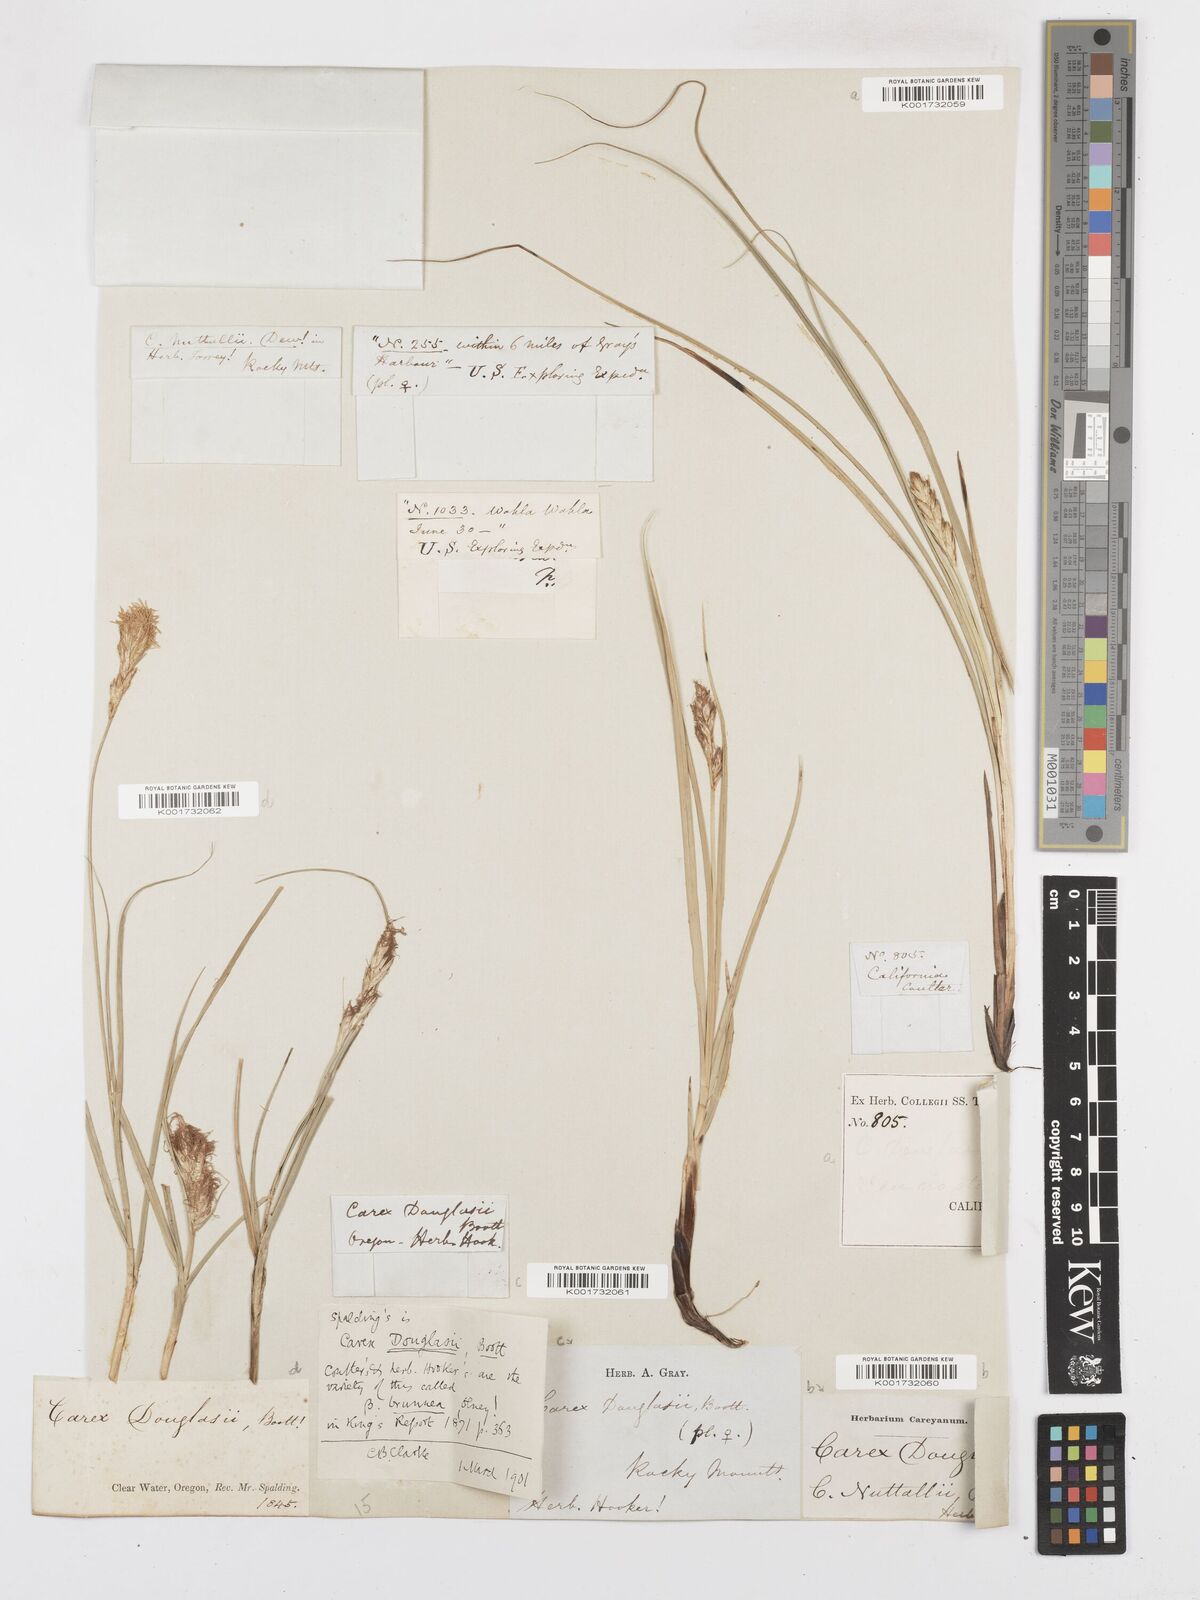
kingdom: Plantae
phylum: Tracheophyta
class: Liliopsida
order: Poales
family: Cyperaceae
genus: Carex
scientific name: Carex douglasii
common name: Douglas' sedge
